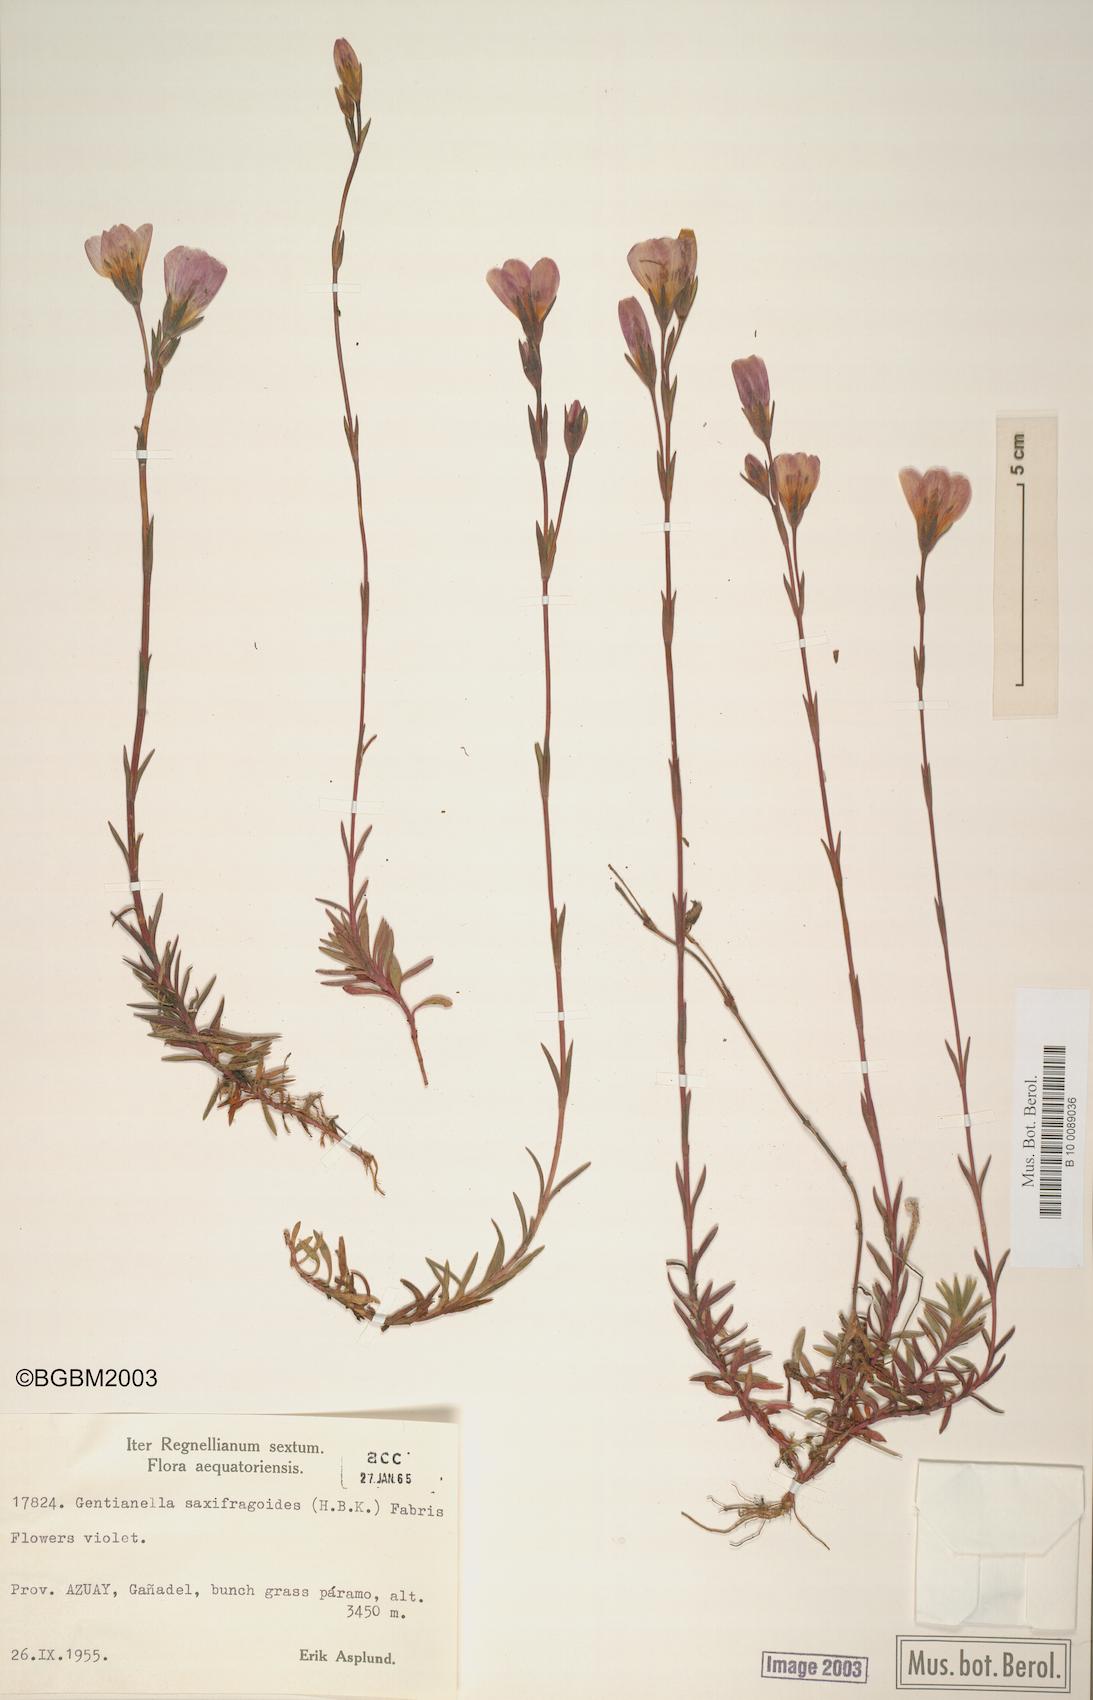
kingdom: Plantae
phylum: Tracheophyta
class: Magnoliopsida
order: Gentianales
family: Gentianaceae
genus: Gentianella
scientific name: Gentianella saxifragoides
